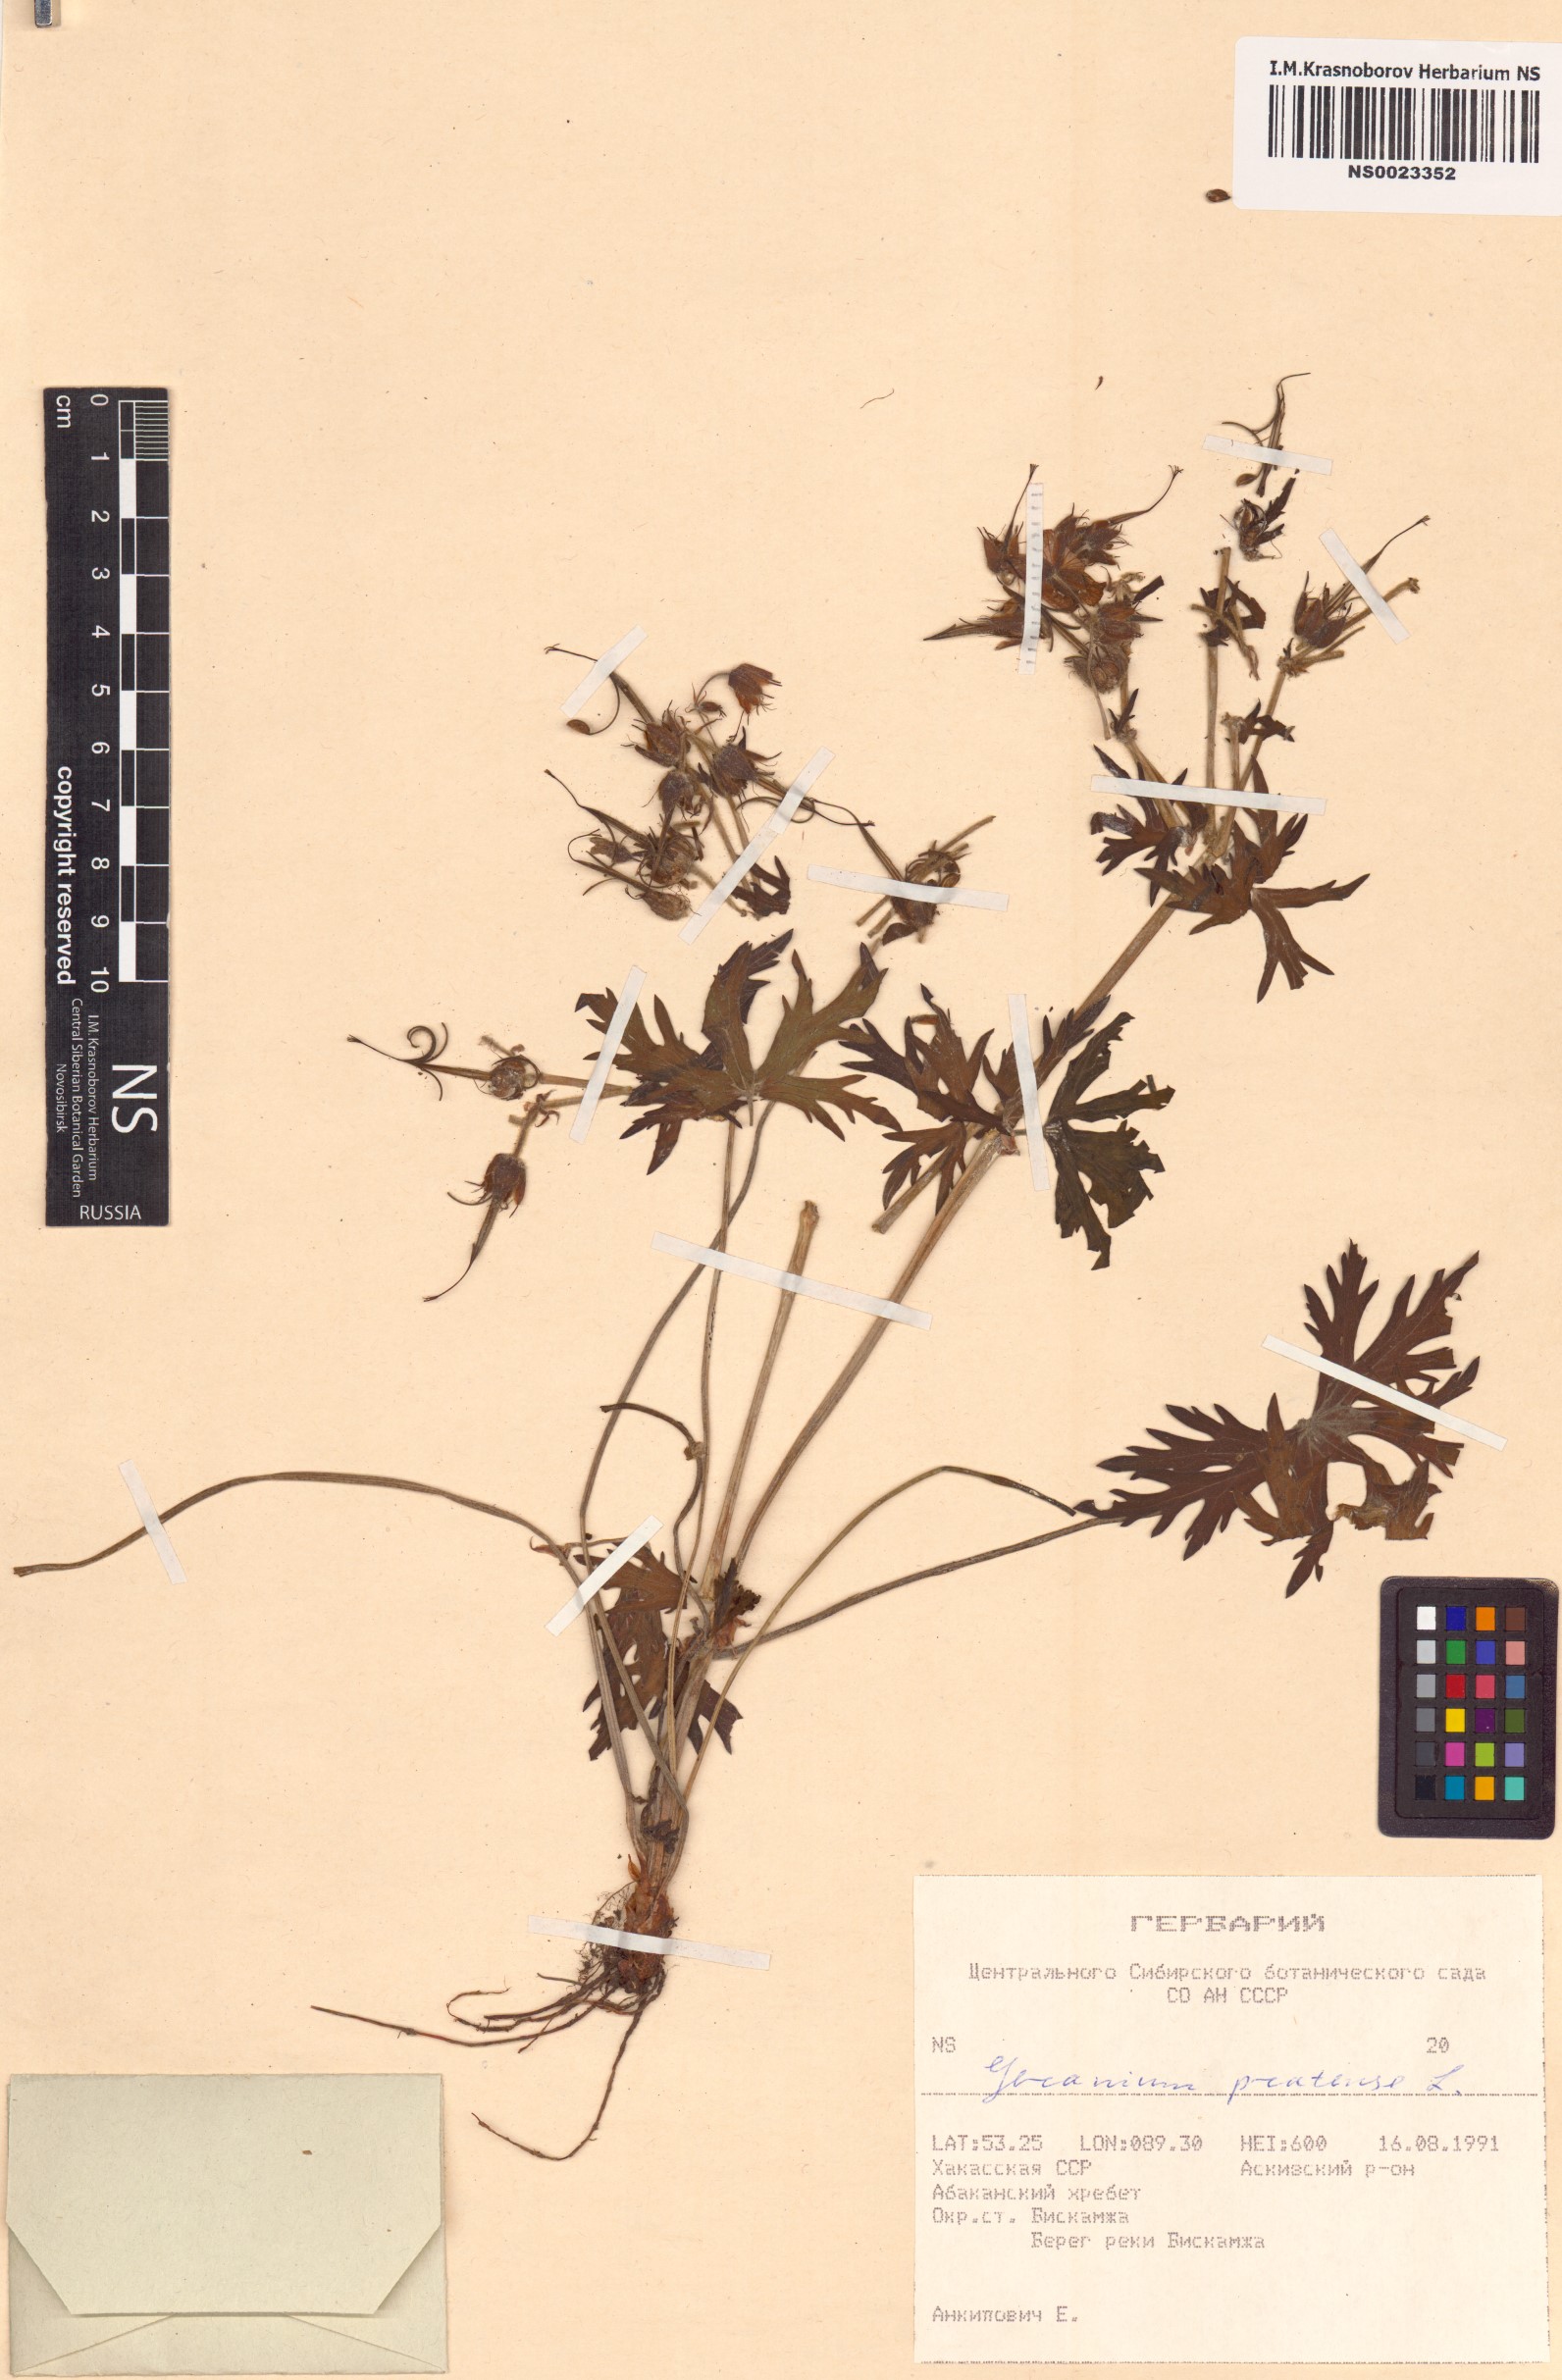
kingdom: Plantae
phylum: Tracheophyta
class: Magnoliopsida
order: Geraniales
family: Geraniaceae
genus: Geranium
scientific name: Geranium pratense
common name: Meadow crane's-bill
